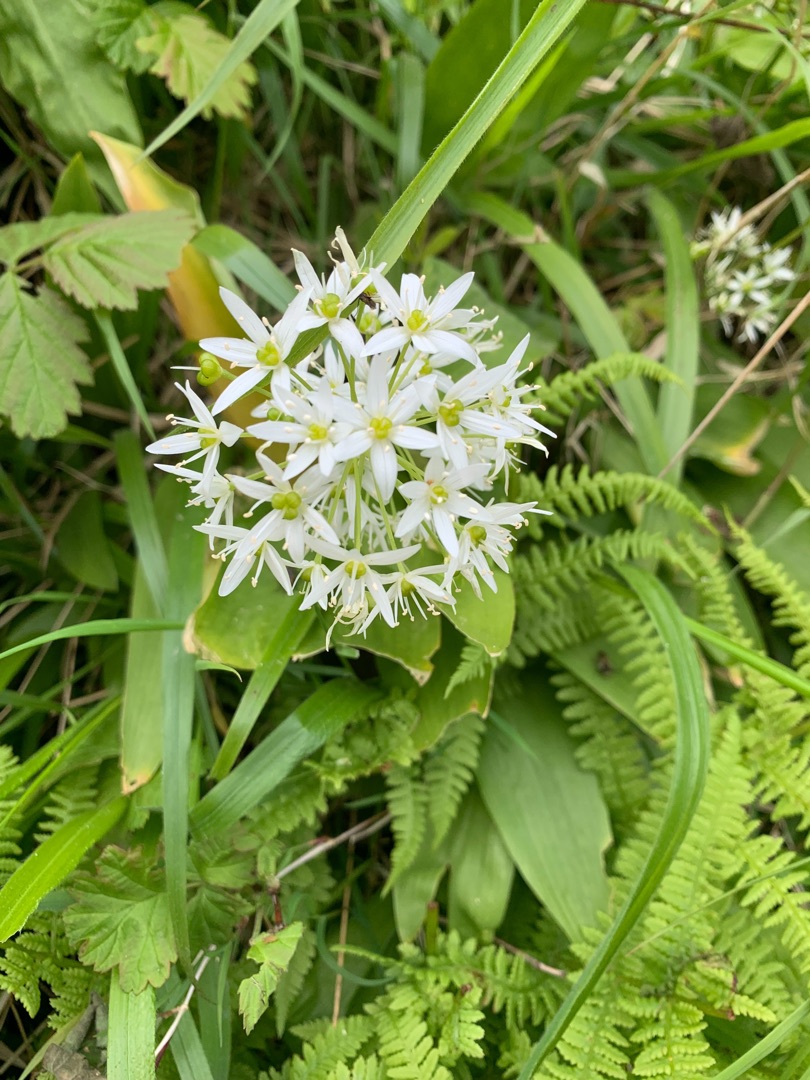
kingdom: Plantae
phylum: Tracheophyta
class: Liliopsida
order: Asparagales
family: Amaryllidaceae
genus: Allium
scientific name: Allium ursinum
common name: Rams-løg
